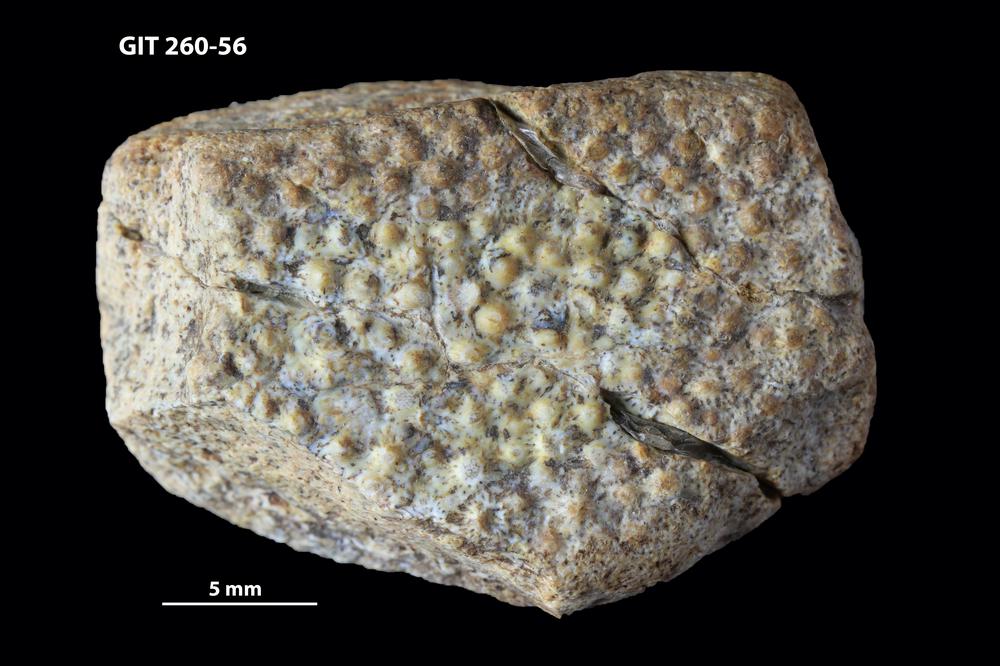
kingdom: Animalia
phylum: Chordata
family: Homostiidae
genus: Homostius
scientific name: Homostius
